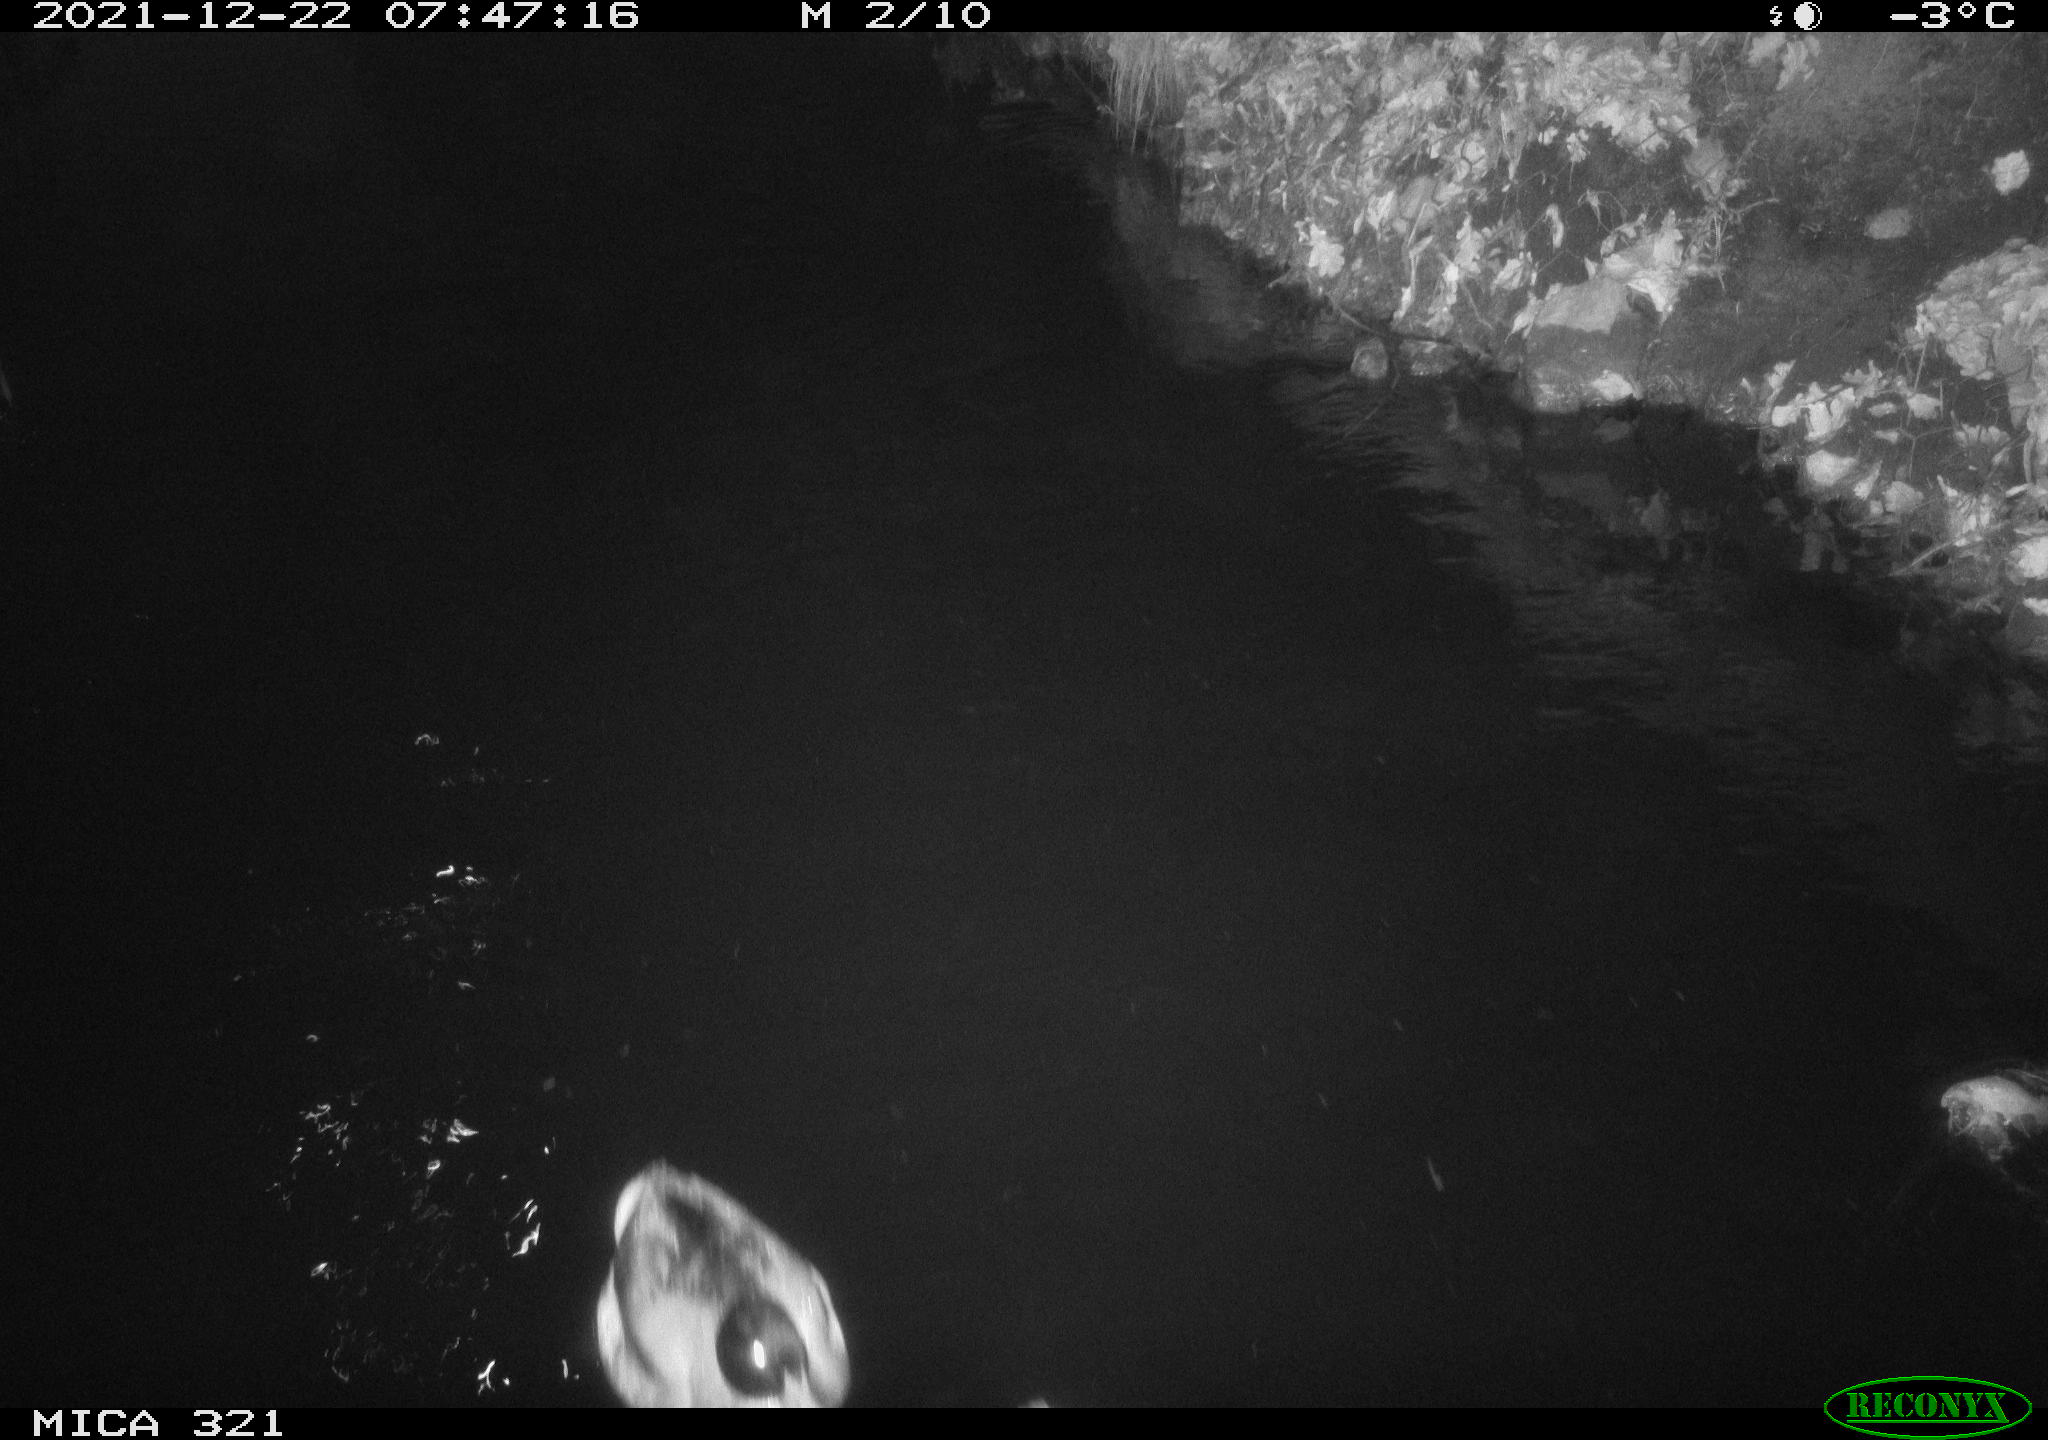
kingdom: Animalia
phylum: Chordata
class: Aves
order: Anseriformes
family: Anatidae
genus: Anas
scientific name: Anas
